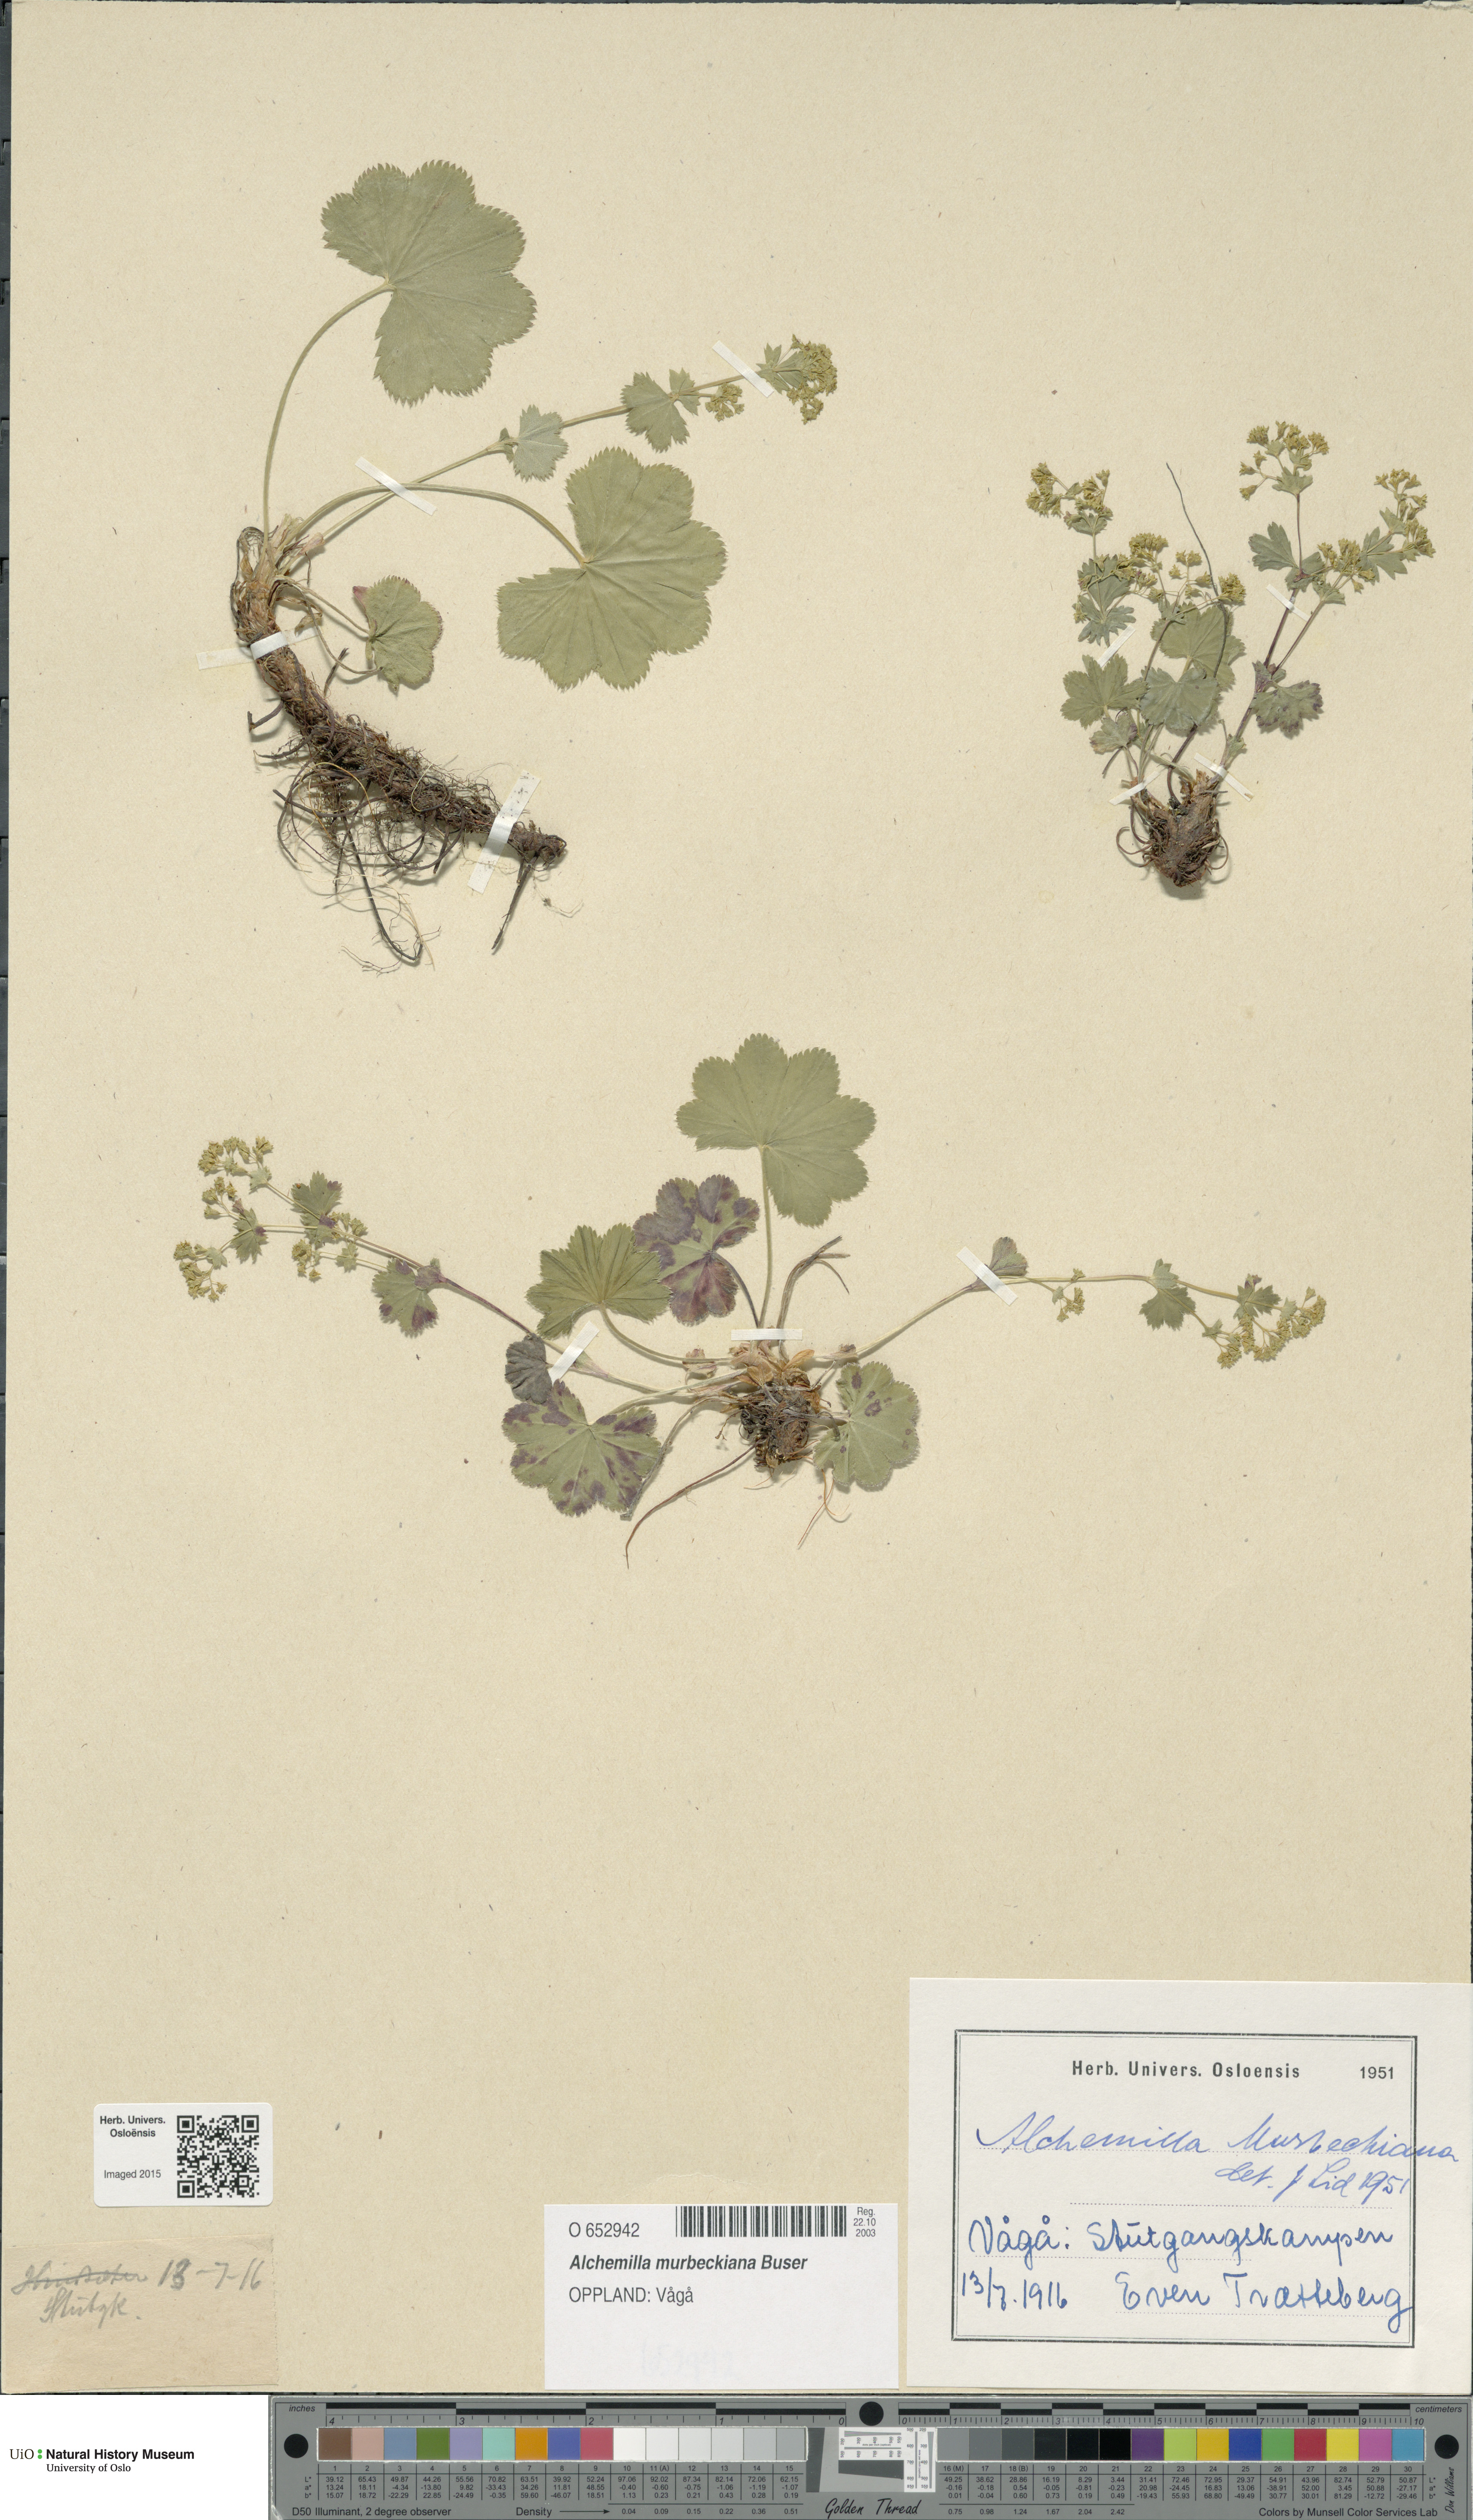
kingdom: Plantae
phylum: Tracheophyta
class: Magnoliopsida
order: Rosales
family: Rosaceae
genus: Alchemilla
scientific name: Alchemilla murbeckiana
